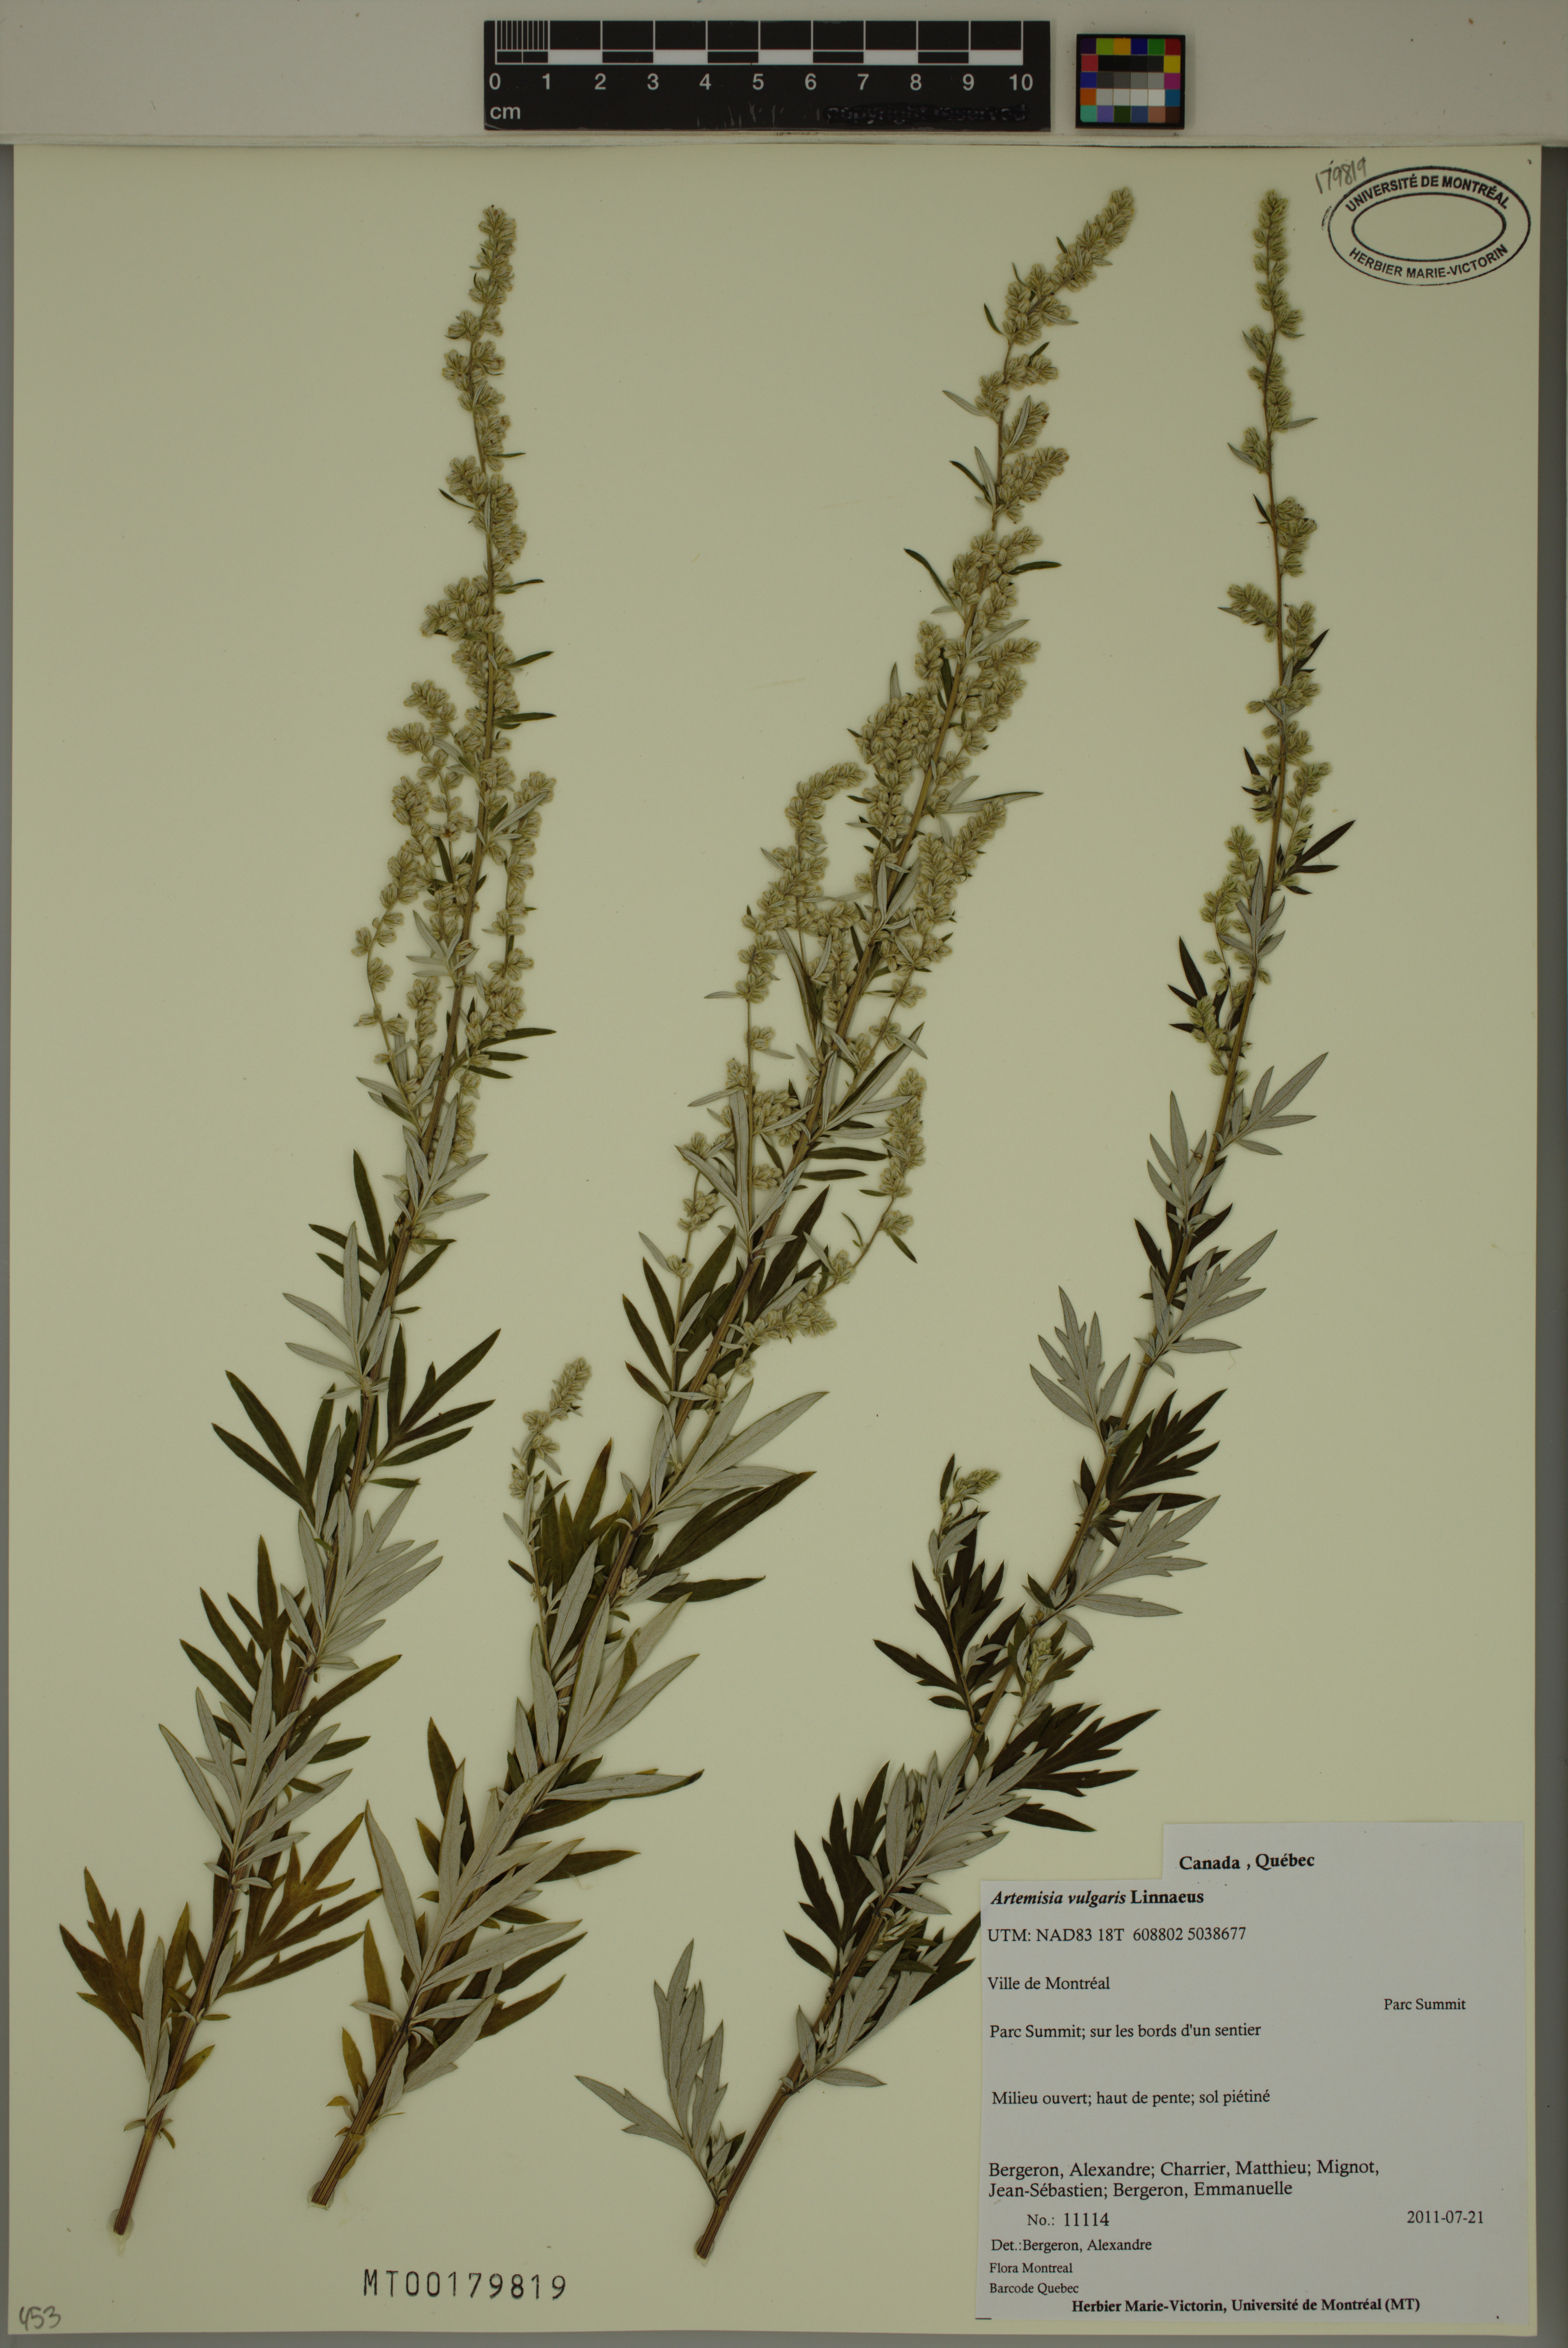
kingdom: Plantae
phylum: Tracheophyta
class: Magnoliopsida
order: Asterales
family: Asteraceae
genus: Artemisia
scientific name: Artemisia vulgaris
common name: Mugwort
